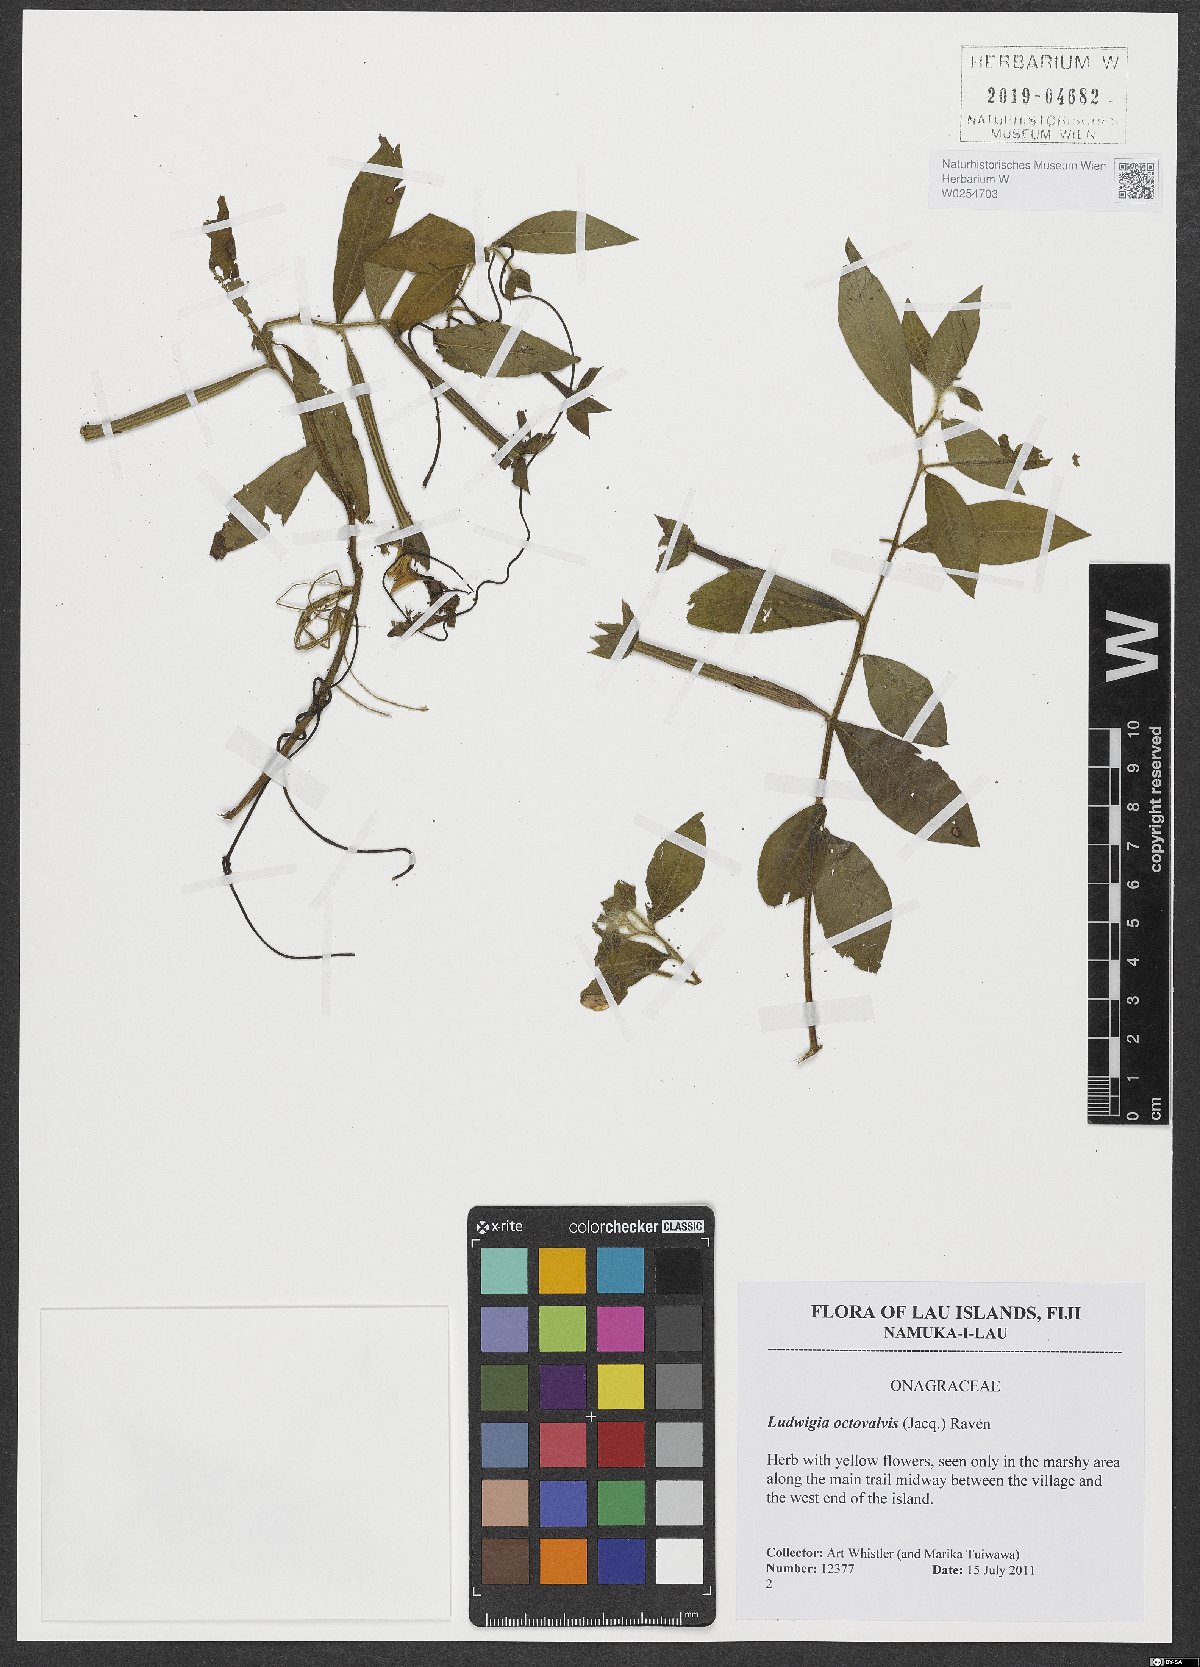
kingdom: Plantae
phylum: Tracheophyta
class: Magnoliopsida
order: Myrtales
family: Onagraceae
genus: Ludwigia
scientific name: Ludwigia octovalvis
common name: Water-primrose
